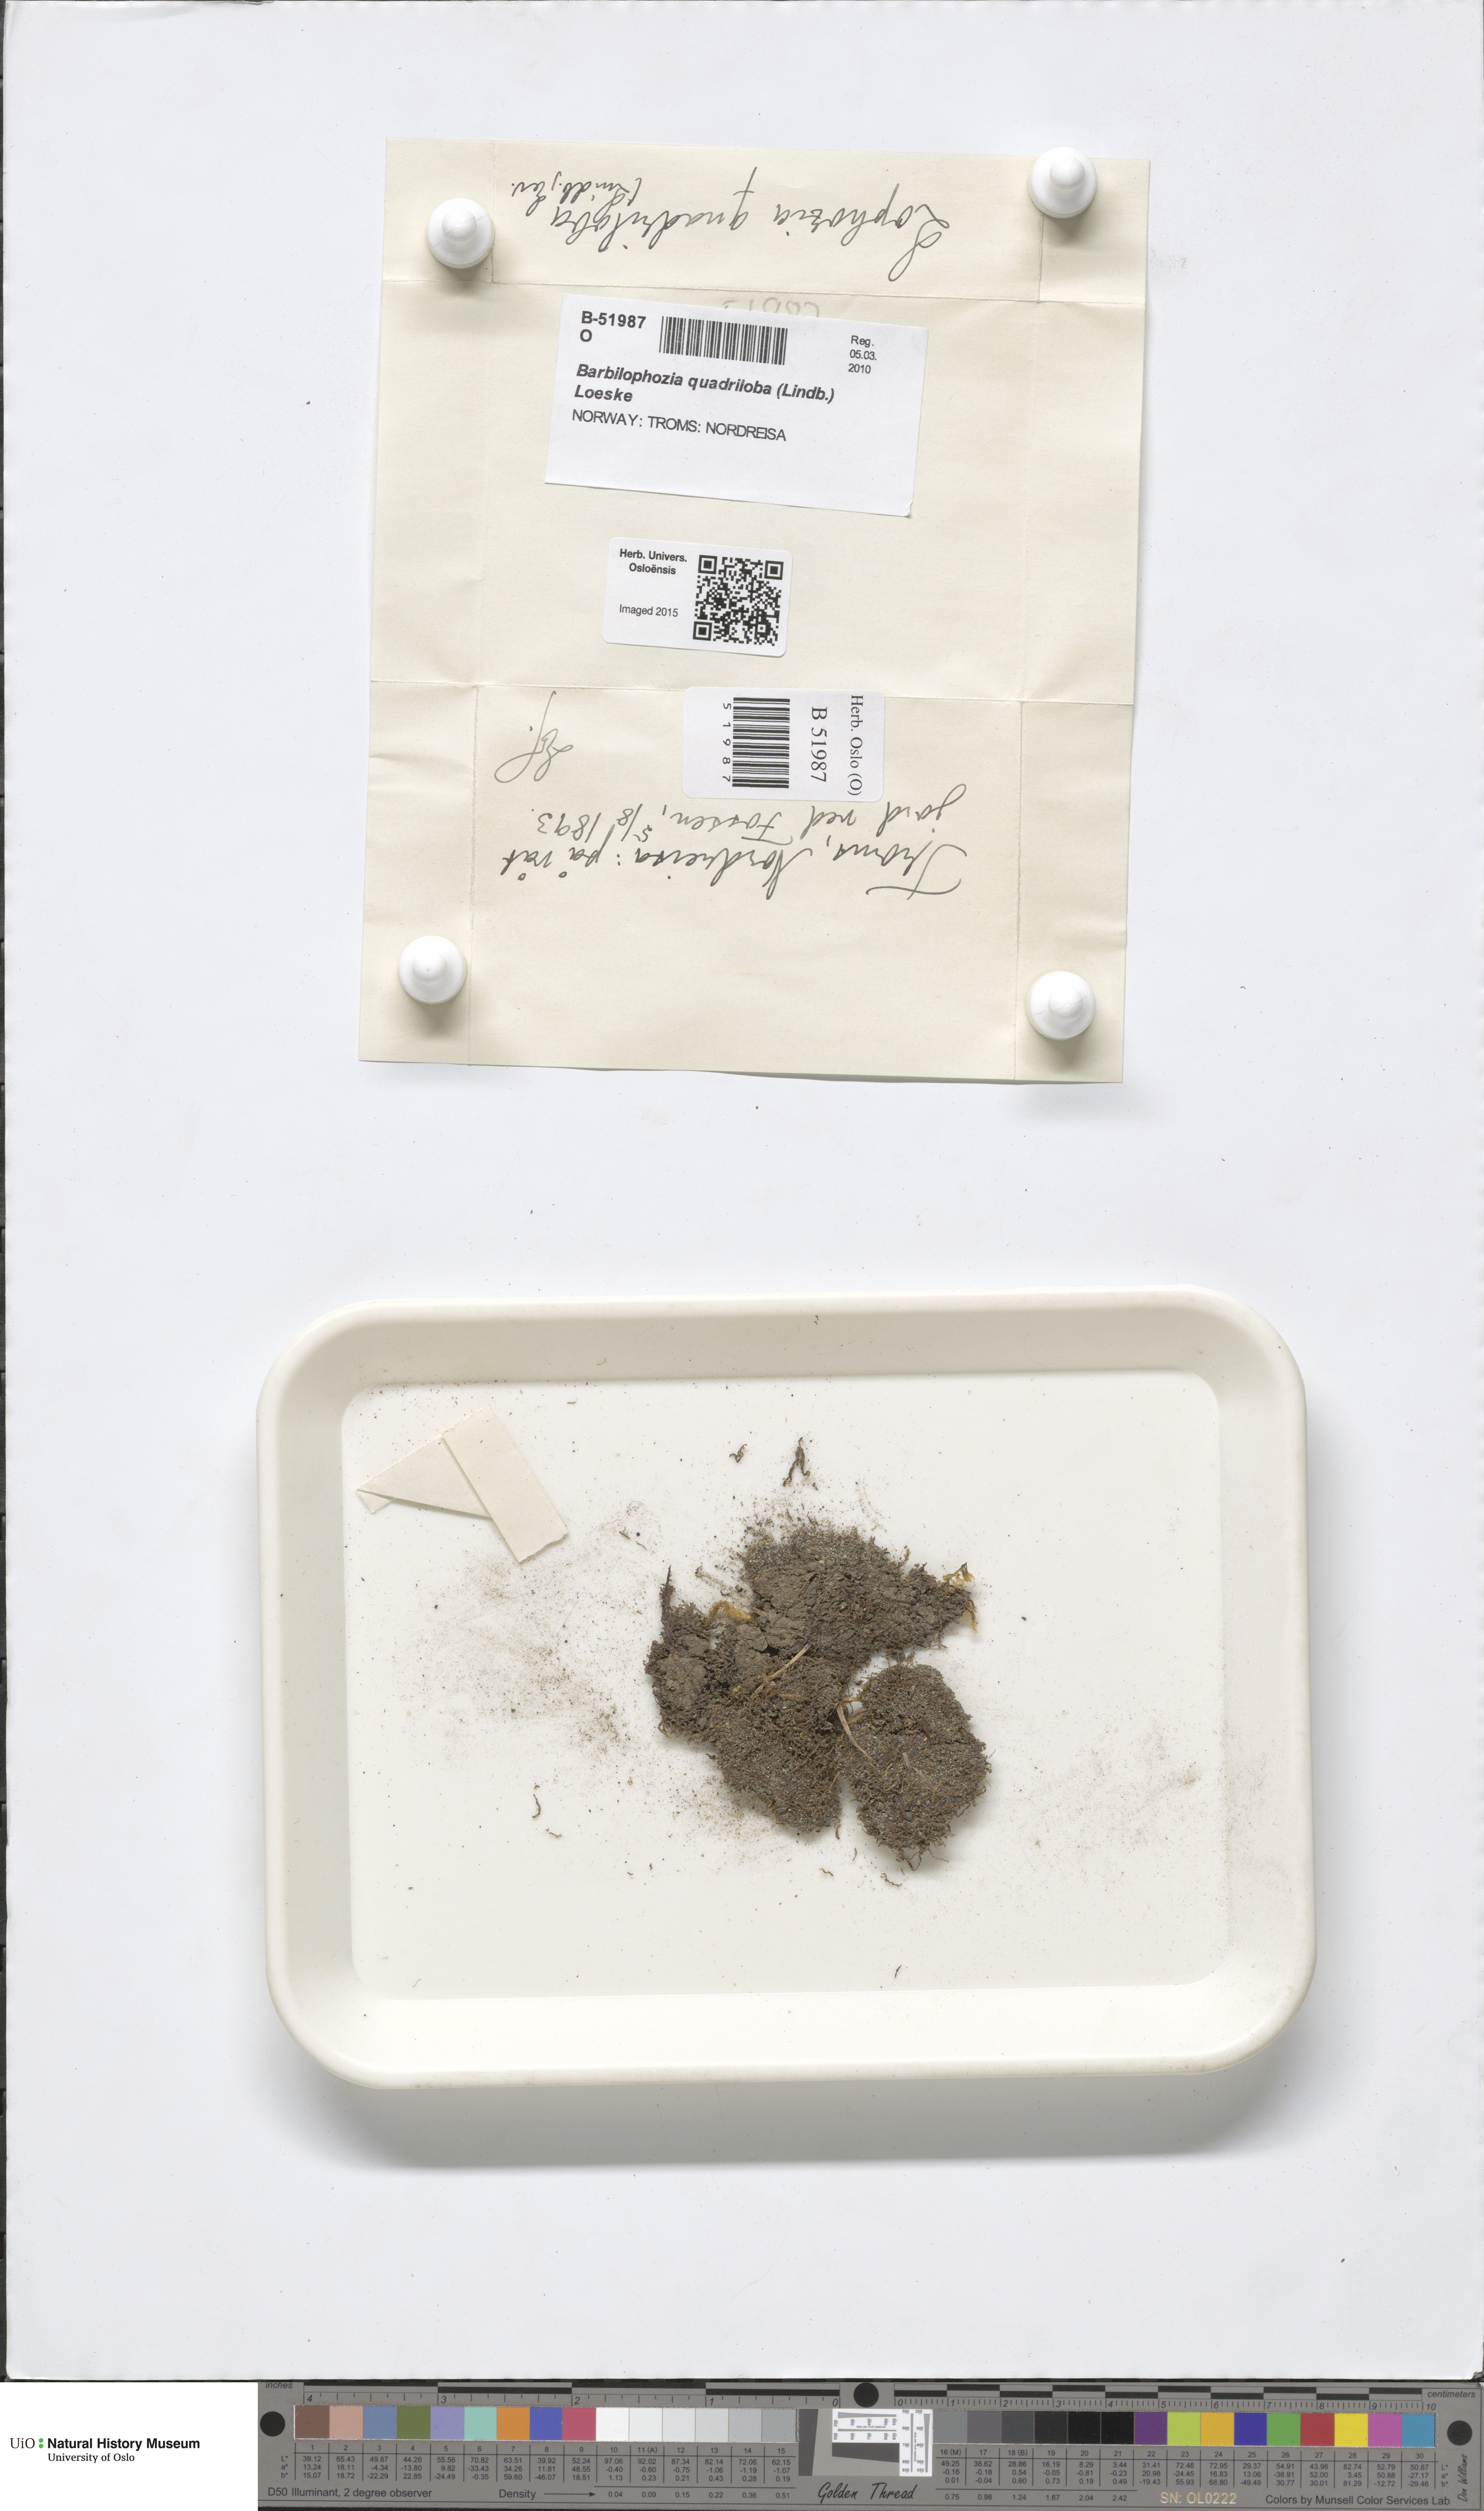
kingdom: Plantae
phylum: Marchantiophyta
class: Jungermanniopsida
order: Jungermanniales
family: Anastrophyllaceae
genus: Schljakovianthus
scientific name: Schljakovianthus quadrilobus
